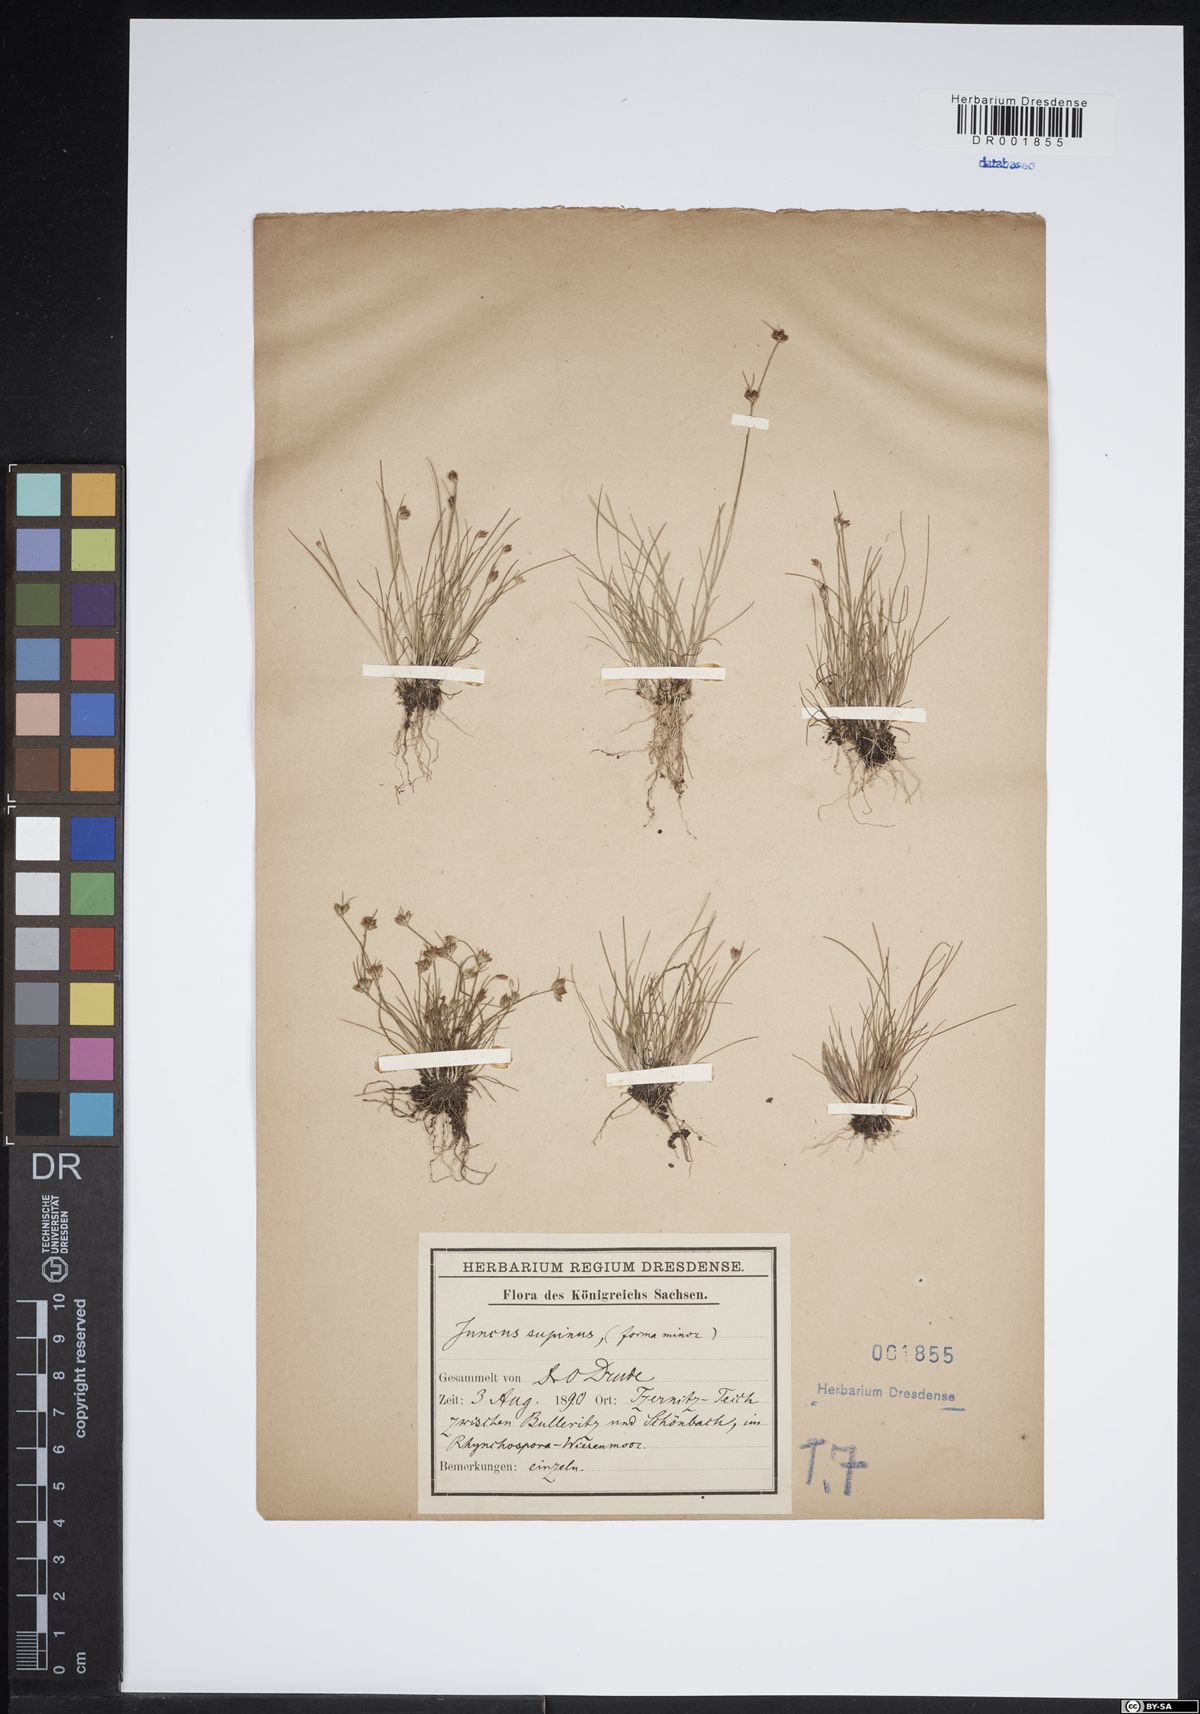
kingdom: Plantae
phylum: Tracheophyta
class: Liliopsida
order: Poales
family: Juncaceae
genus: Juncus
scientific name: Juncus bulbosus
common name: Bulbous rush
